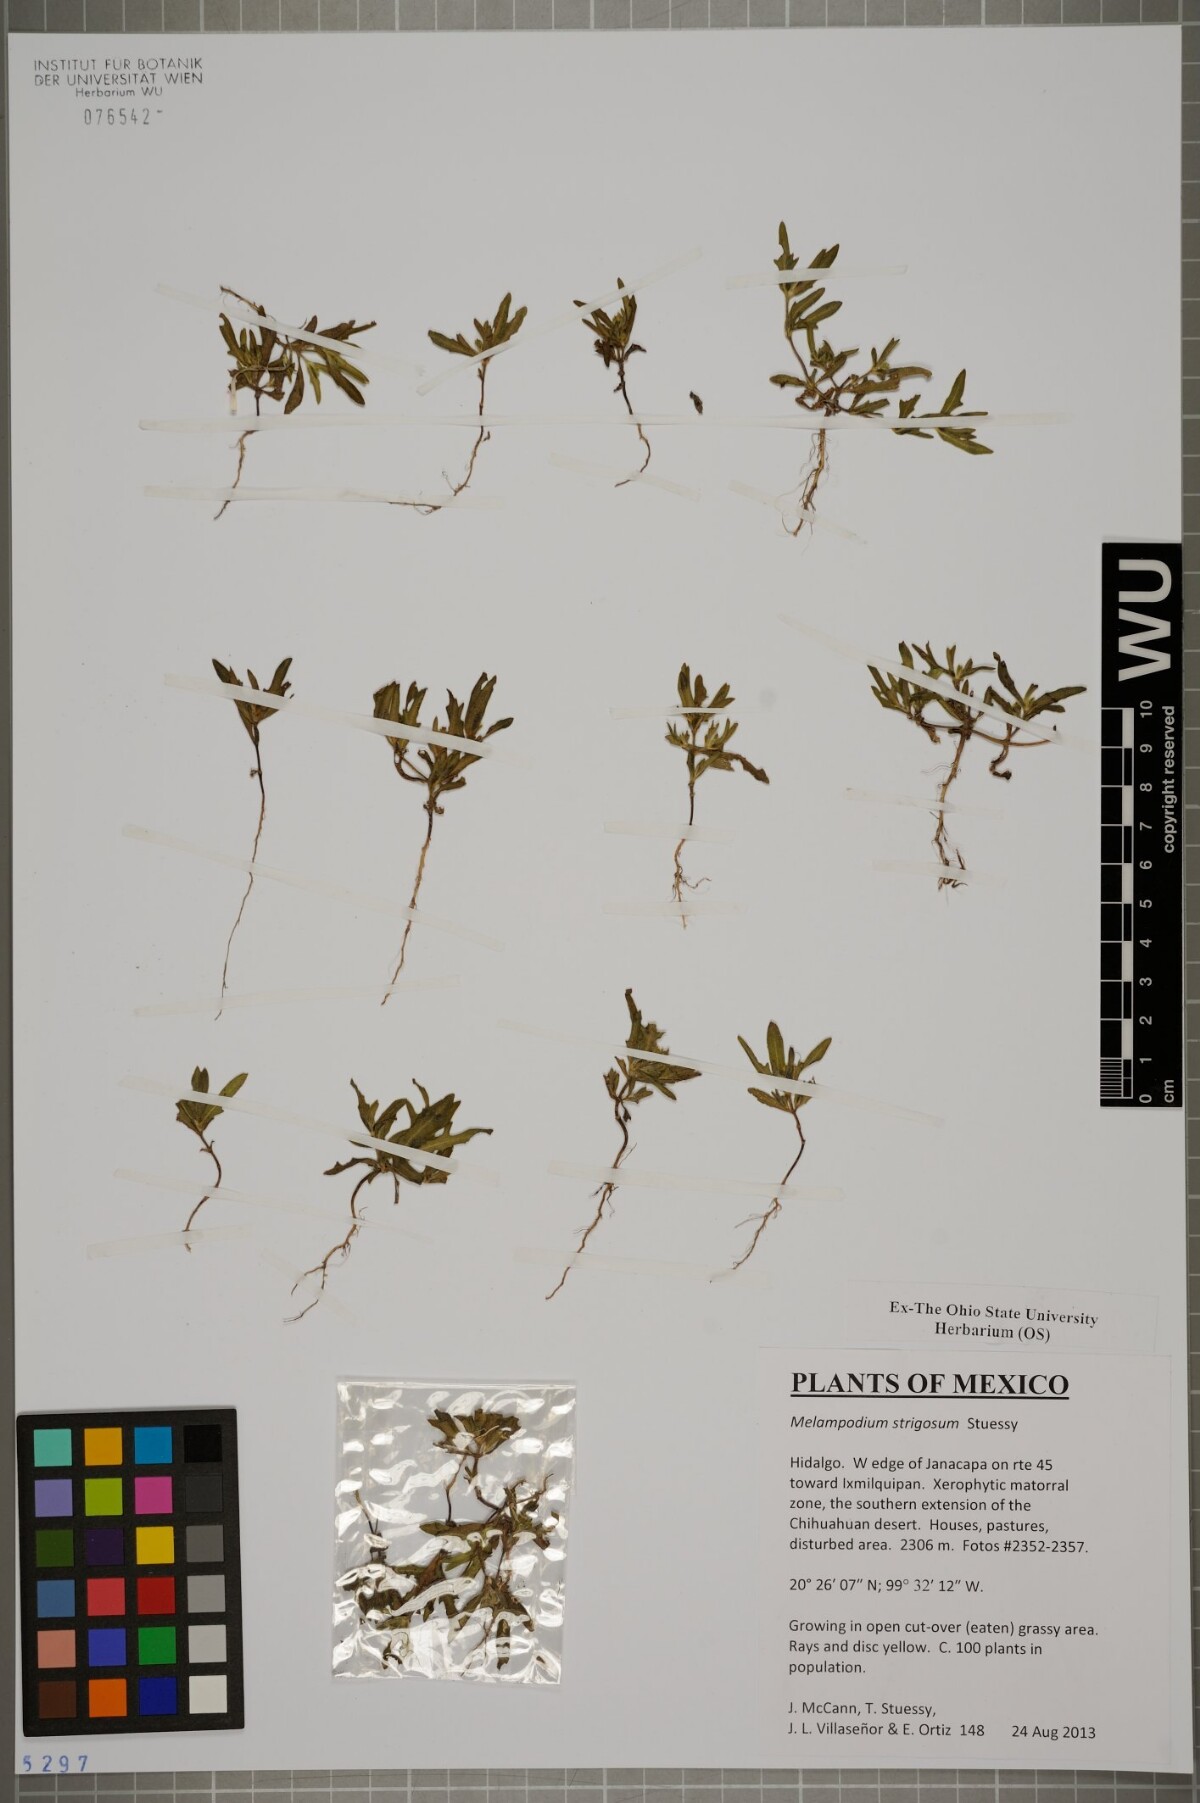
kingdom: Plantae
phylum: Tracheophyta
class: Magnoliopsida
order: Asterales
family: Asteraceae
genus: Melampodium
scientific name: Melampodium strigosum
